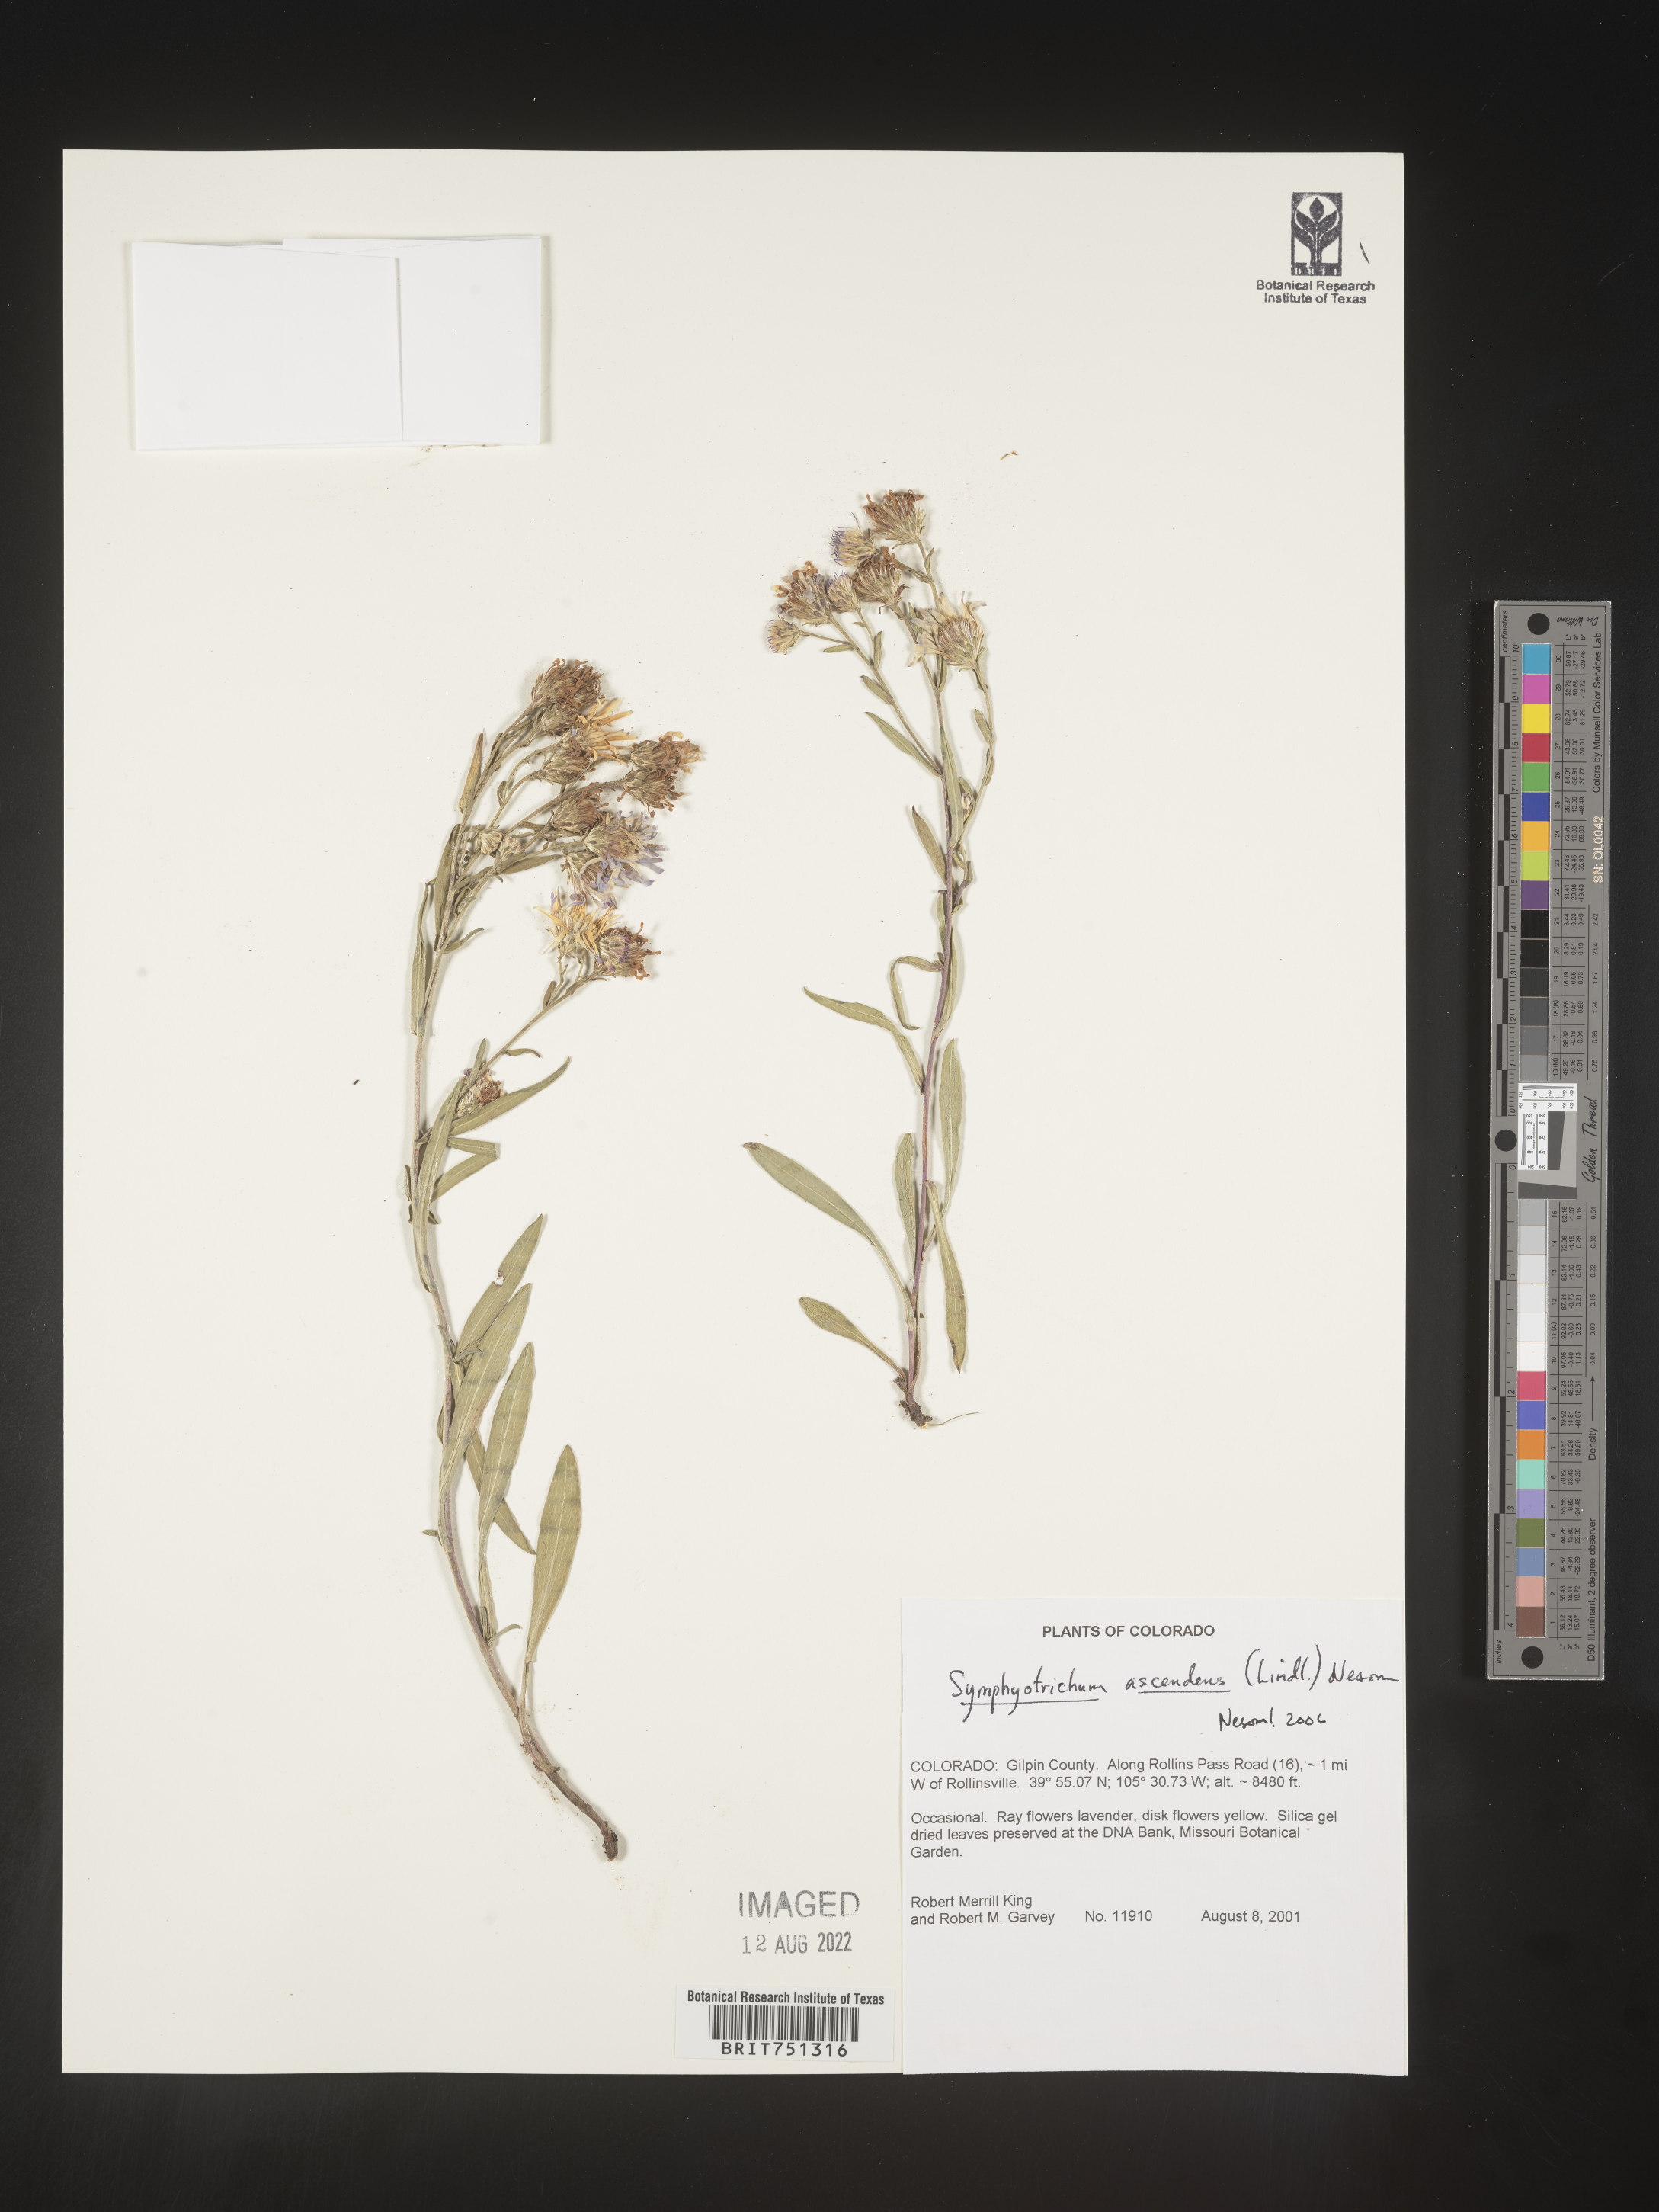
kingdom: Plantae
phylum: Tracheophyta
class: Magnoliopsida
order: Asterales
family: Asteraceae
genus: Symphyotrichum
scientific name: Symphyotrichum ascendens
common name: Intermountain aster
